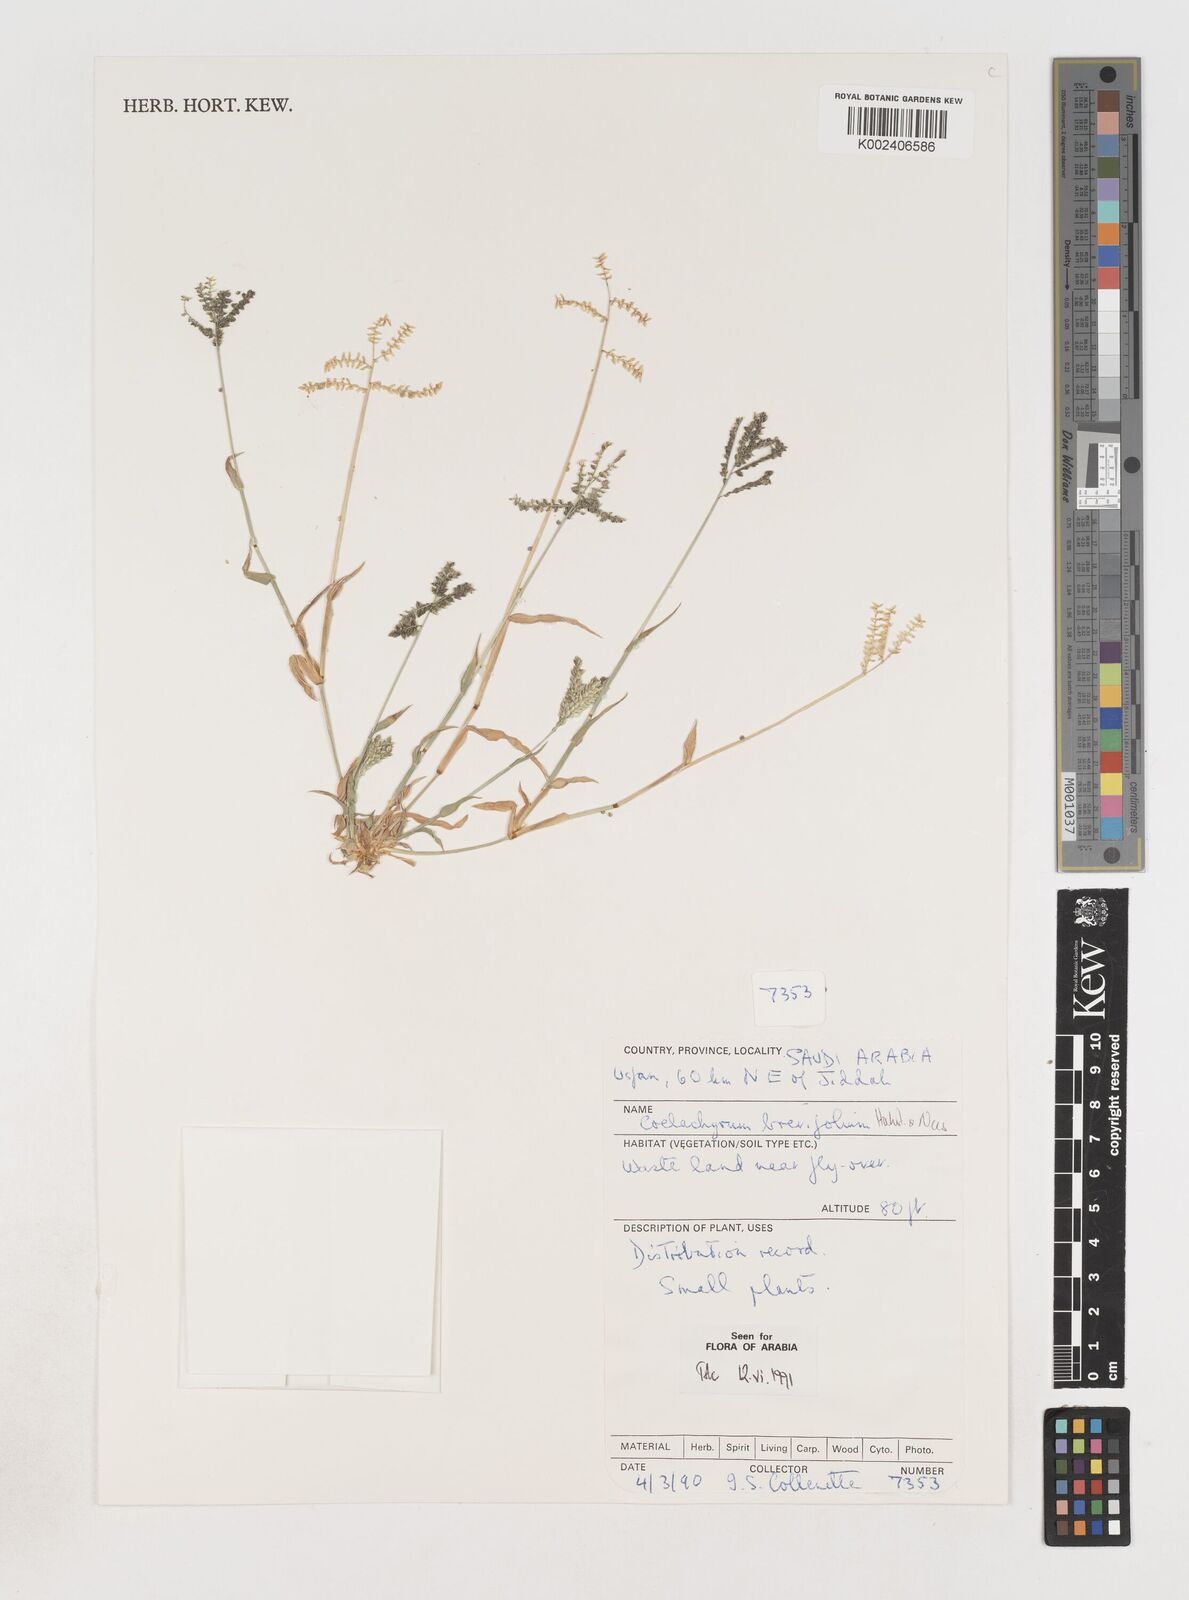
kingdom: Plantae
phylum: Tracheophyta
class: Liliopsida
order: Poales
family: Poaceae
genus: Coelachyrum
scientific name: Coelachyrum brevifolium
